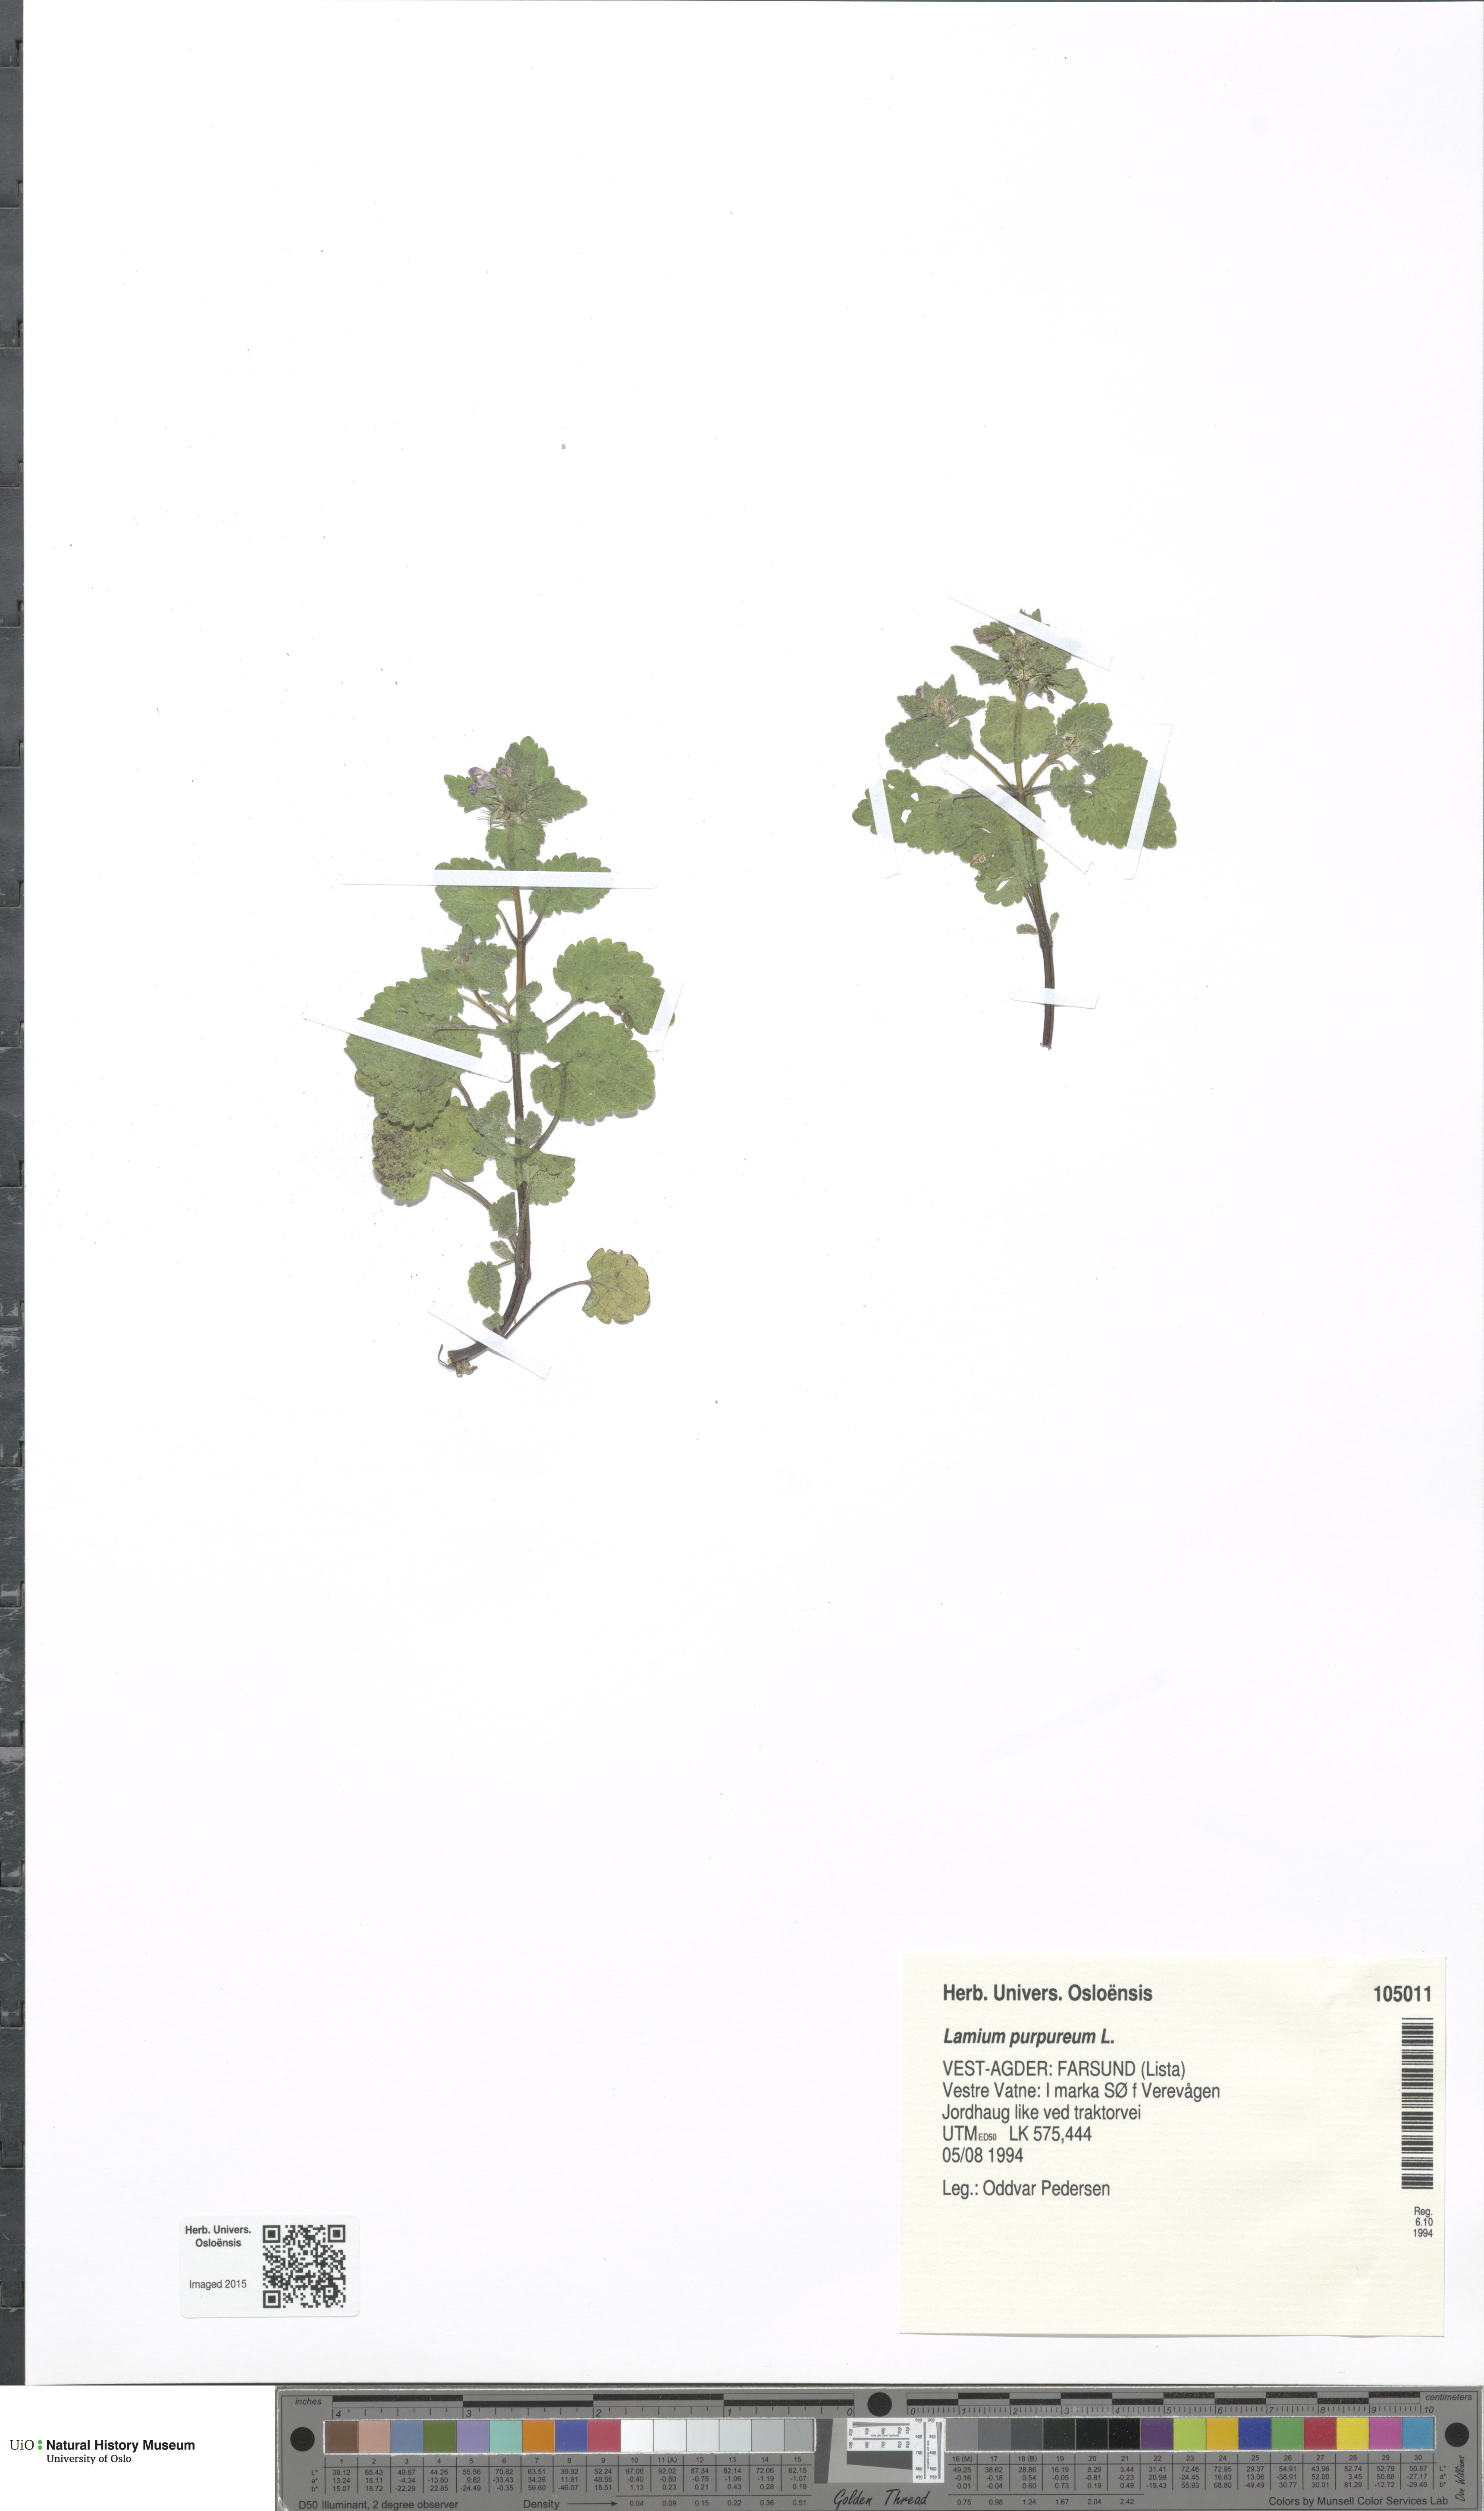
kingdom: Plantae
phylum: Tracheophyta
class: Magnoliopsida
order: Lamiales
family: Lamiaceae
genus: Lamium
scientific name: Lamium purpureum
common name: Red dead-nettle
